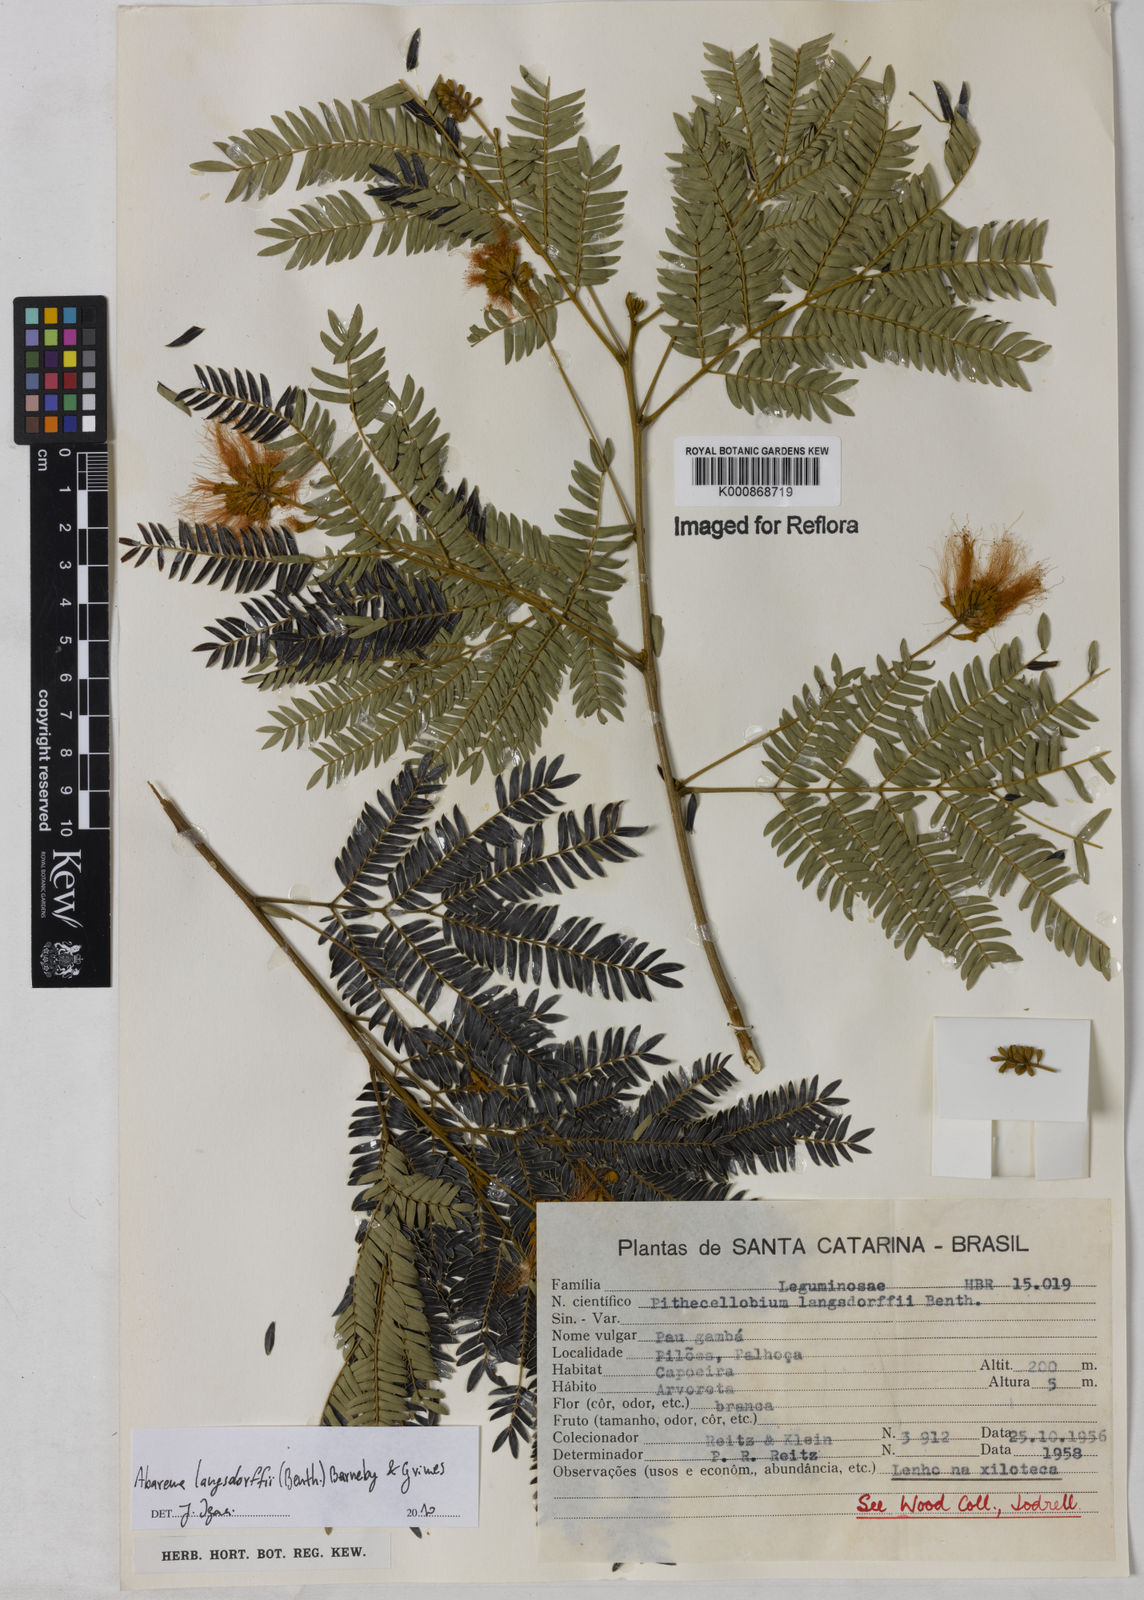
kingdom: Plantae
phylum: Tracheophyta
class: Magnoliopsida
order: Fabales
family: Fabaceae
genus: Jupunba
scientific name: Jupunba langsdorffii
